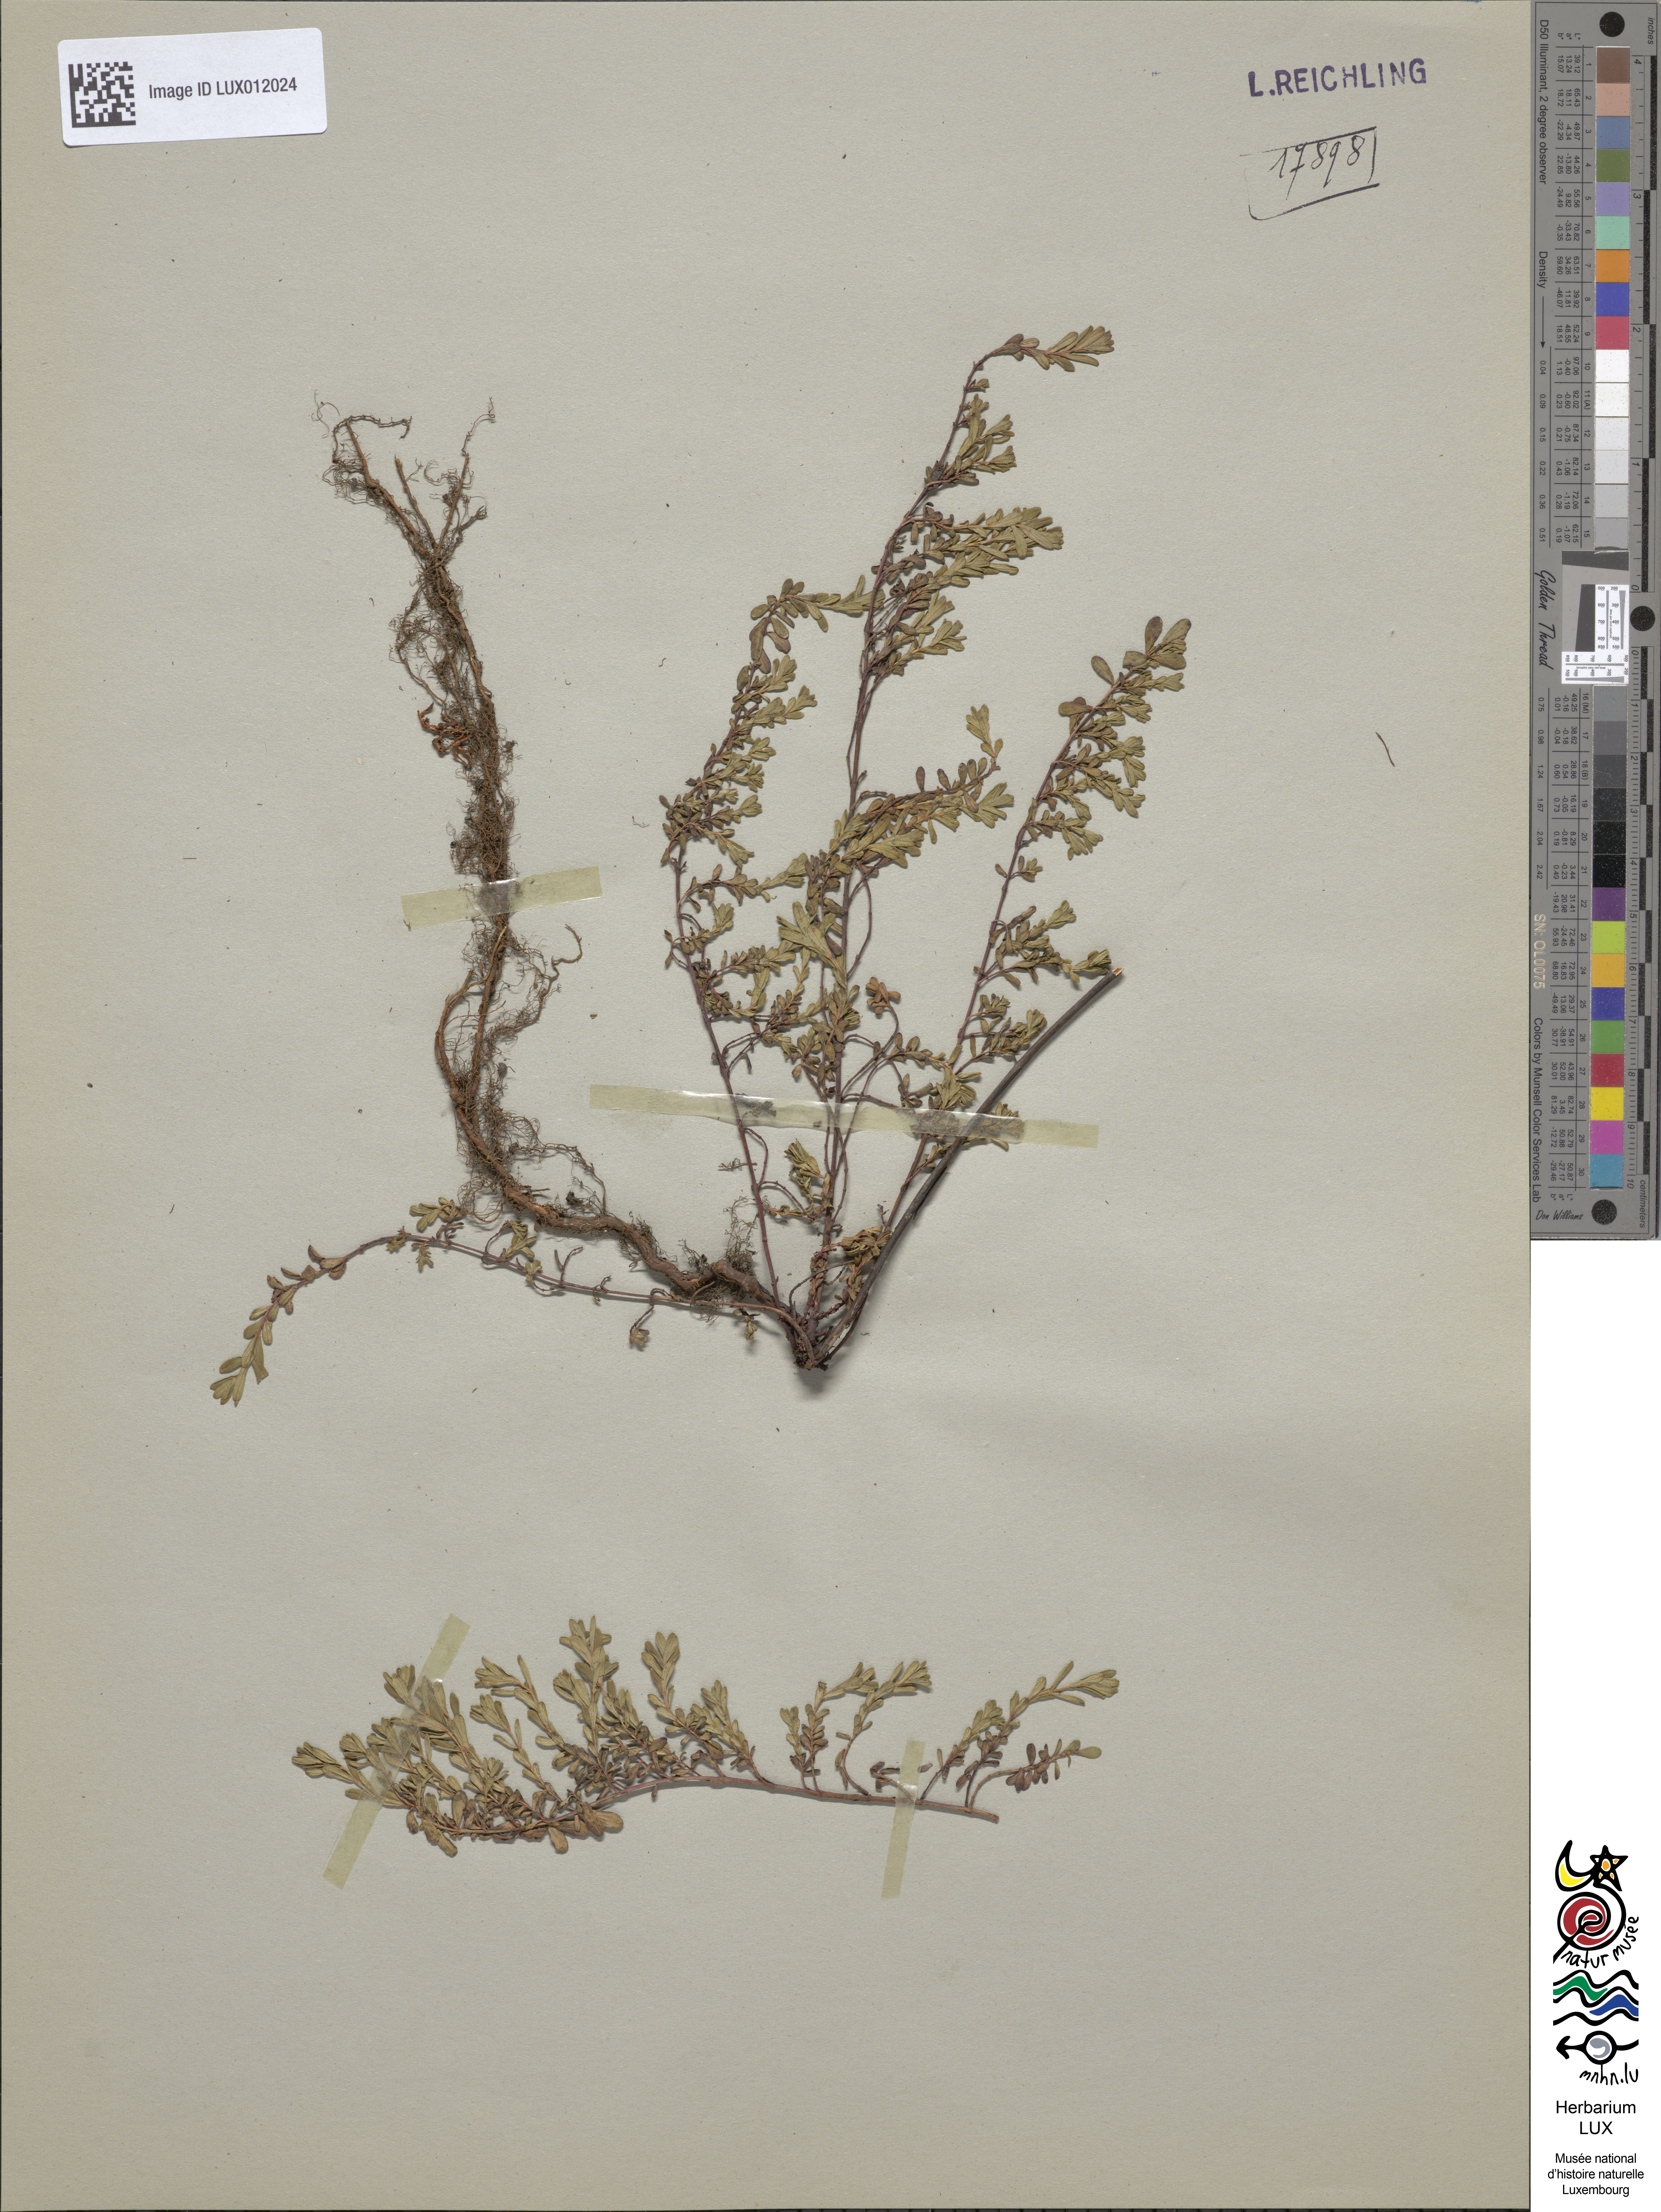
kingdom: Plantae
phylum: Tracheophyta
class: Magnoliopsida
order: Malpighiales
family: Hypericaceae
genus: Hypericum
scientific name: Hypericum humifusum
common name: Trailing st. john's-wort
